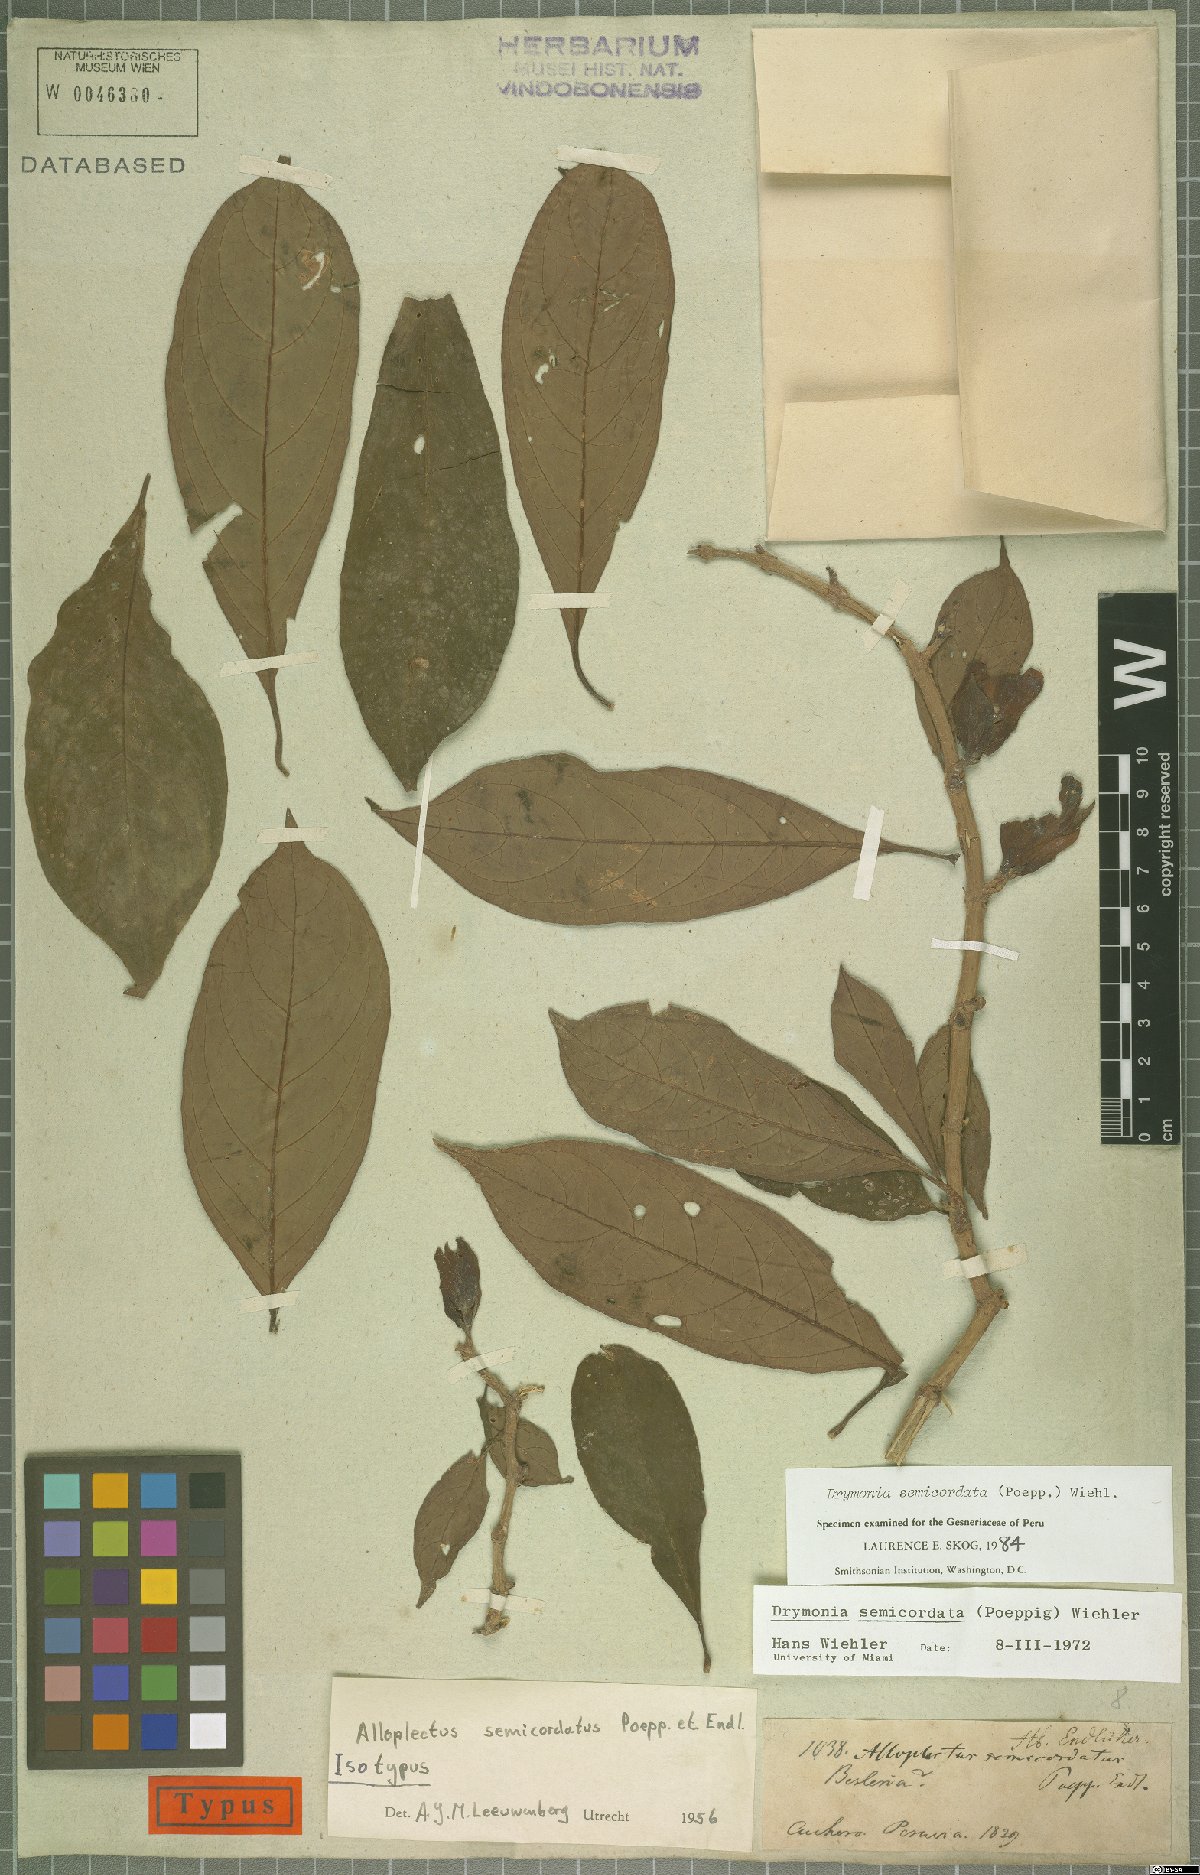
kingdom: Plantae
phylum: Tracheophyta
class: Magnoliopsida
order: Lamiales
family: Gesneriaceae
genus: Drymonia
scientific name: Drymonia semicordata
